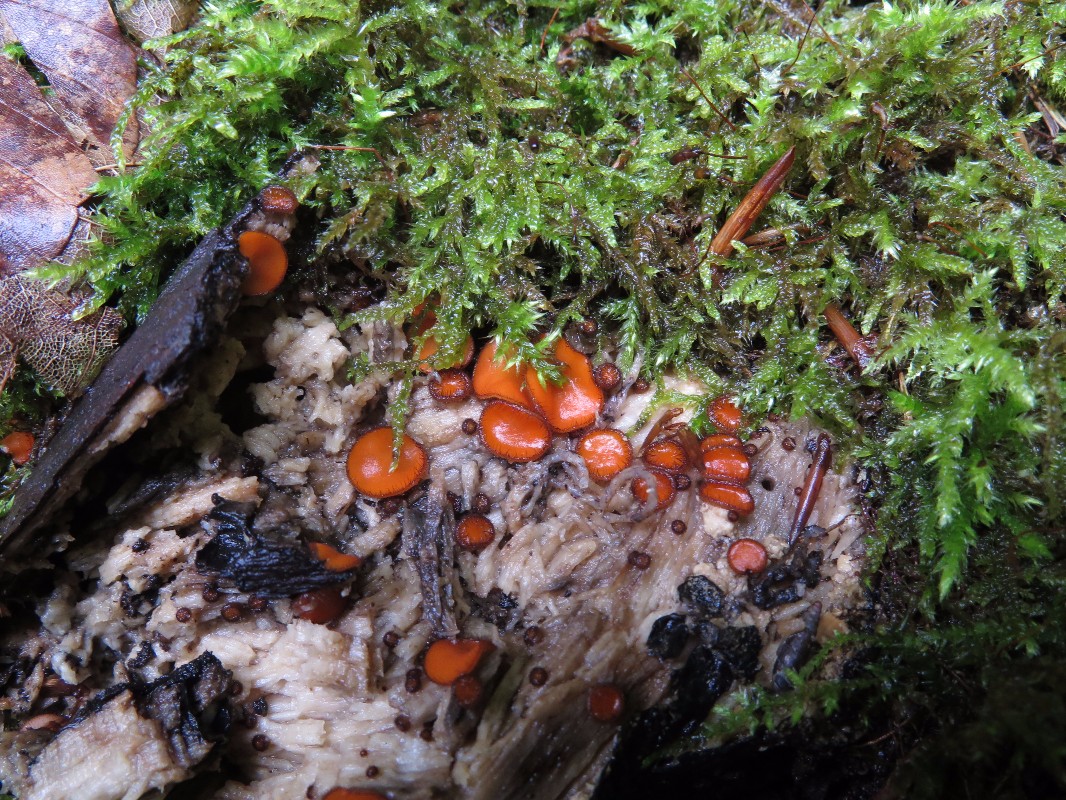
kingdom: Fungi
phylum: Ascomycota
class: Pezizomycetes
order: Pezizales
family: Pyronemataceae
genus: Scutellinia
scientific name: Scutellinia scutellata
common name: frynset skjoldbæger
